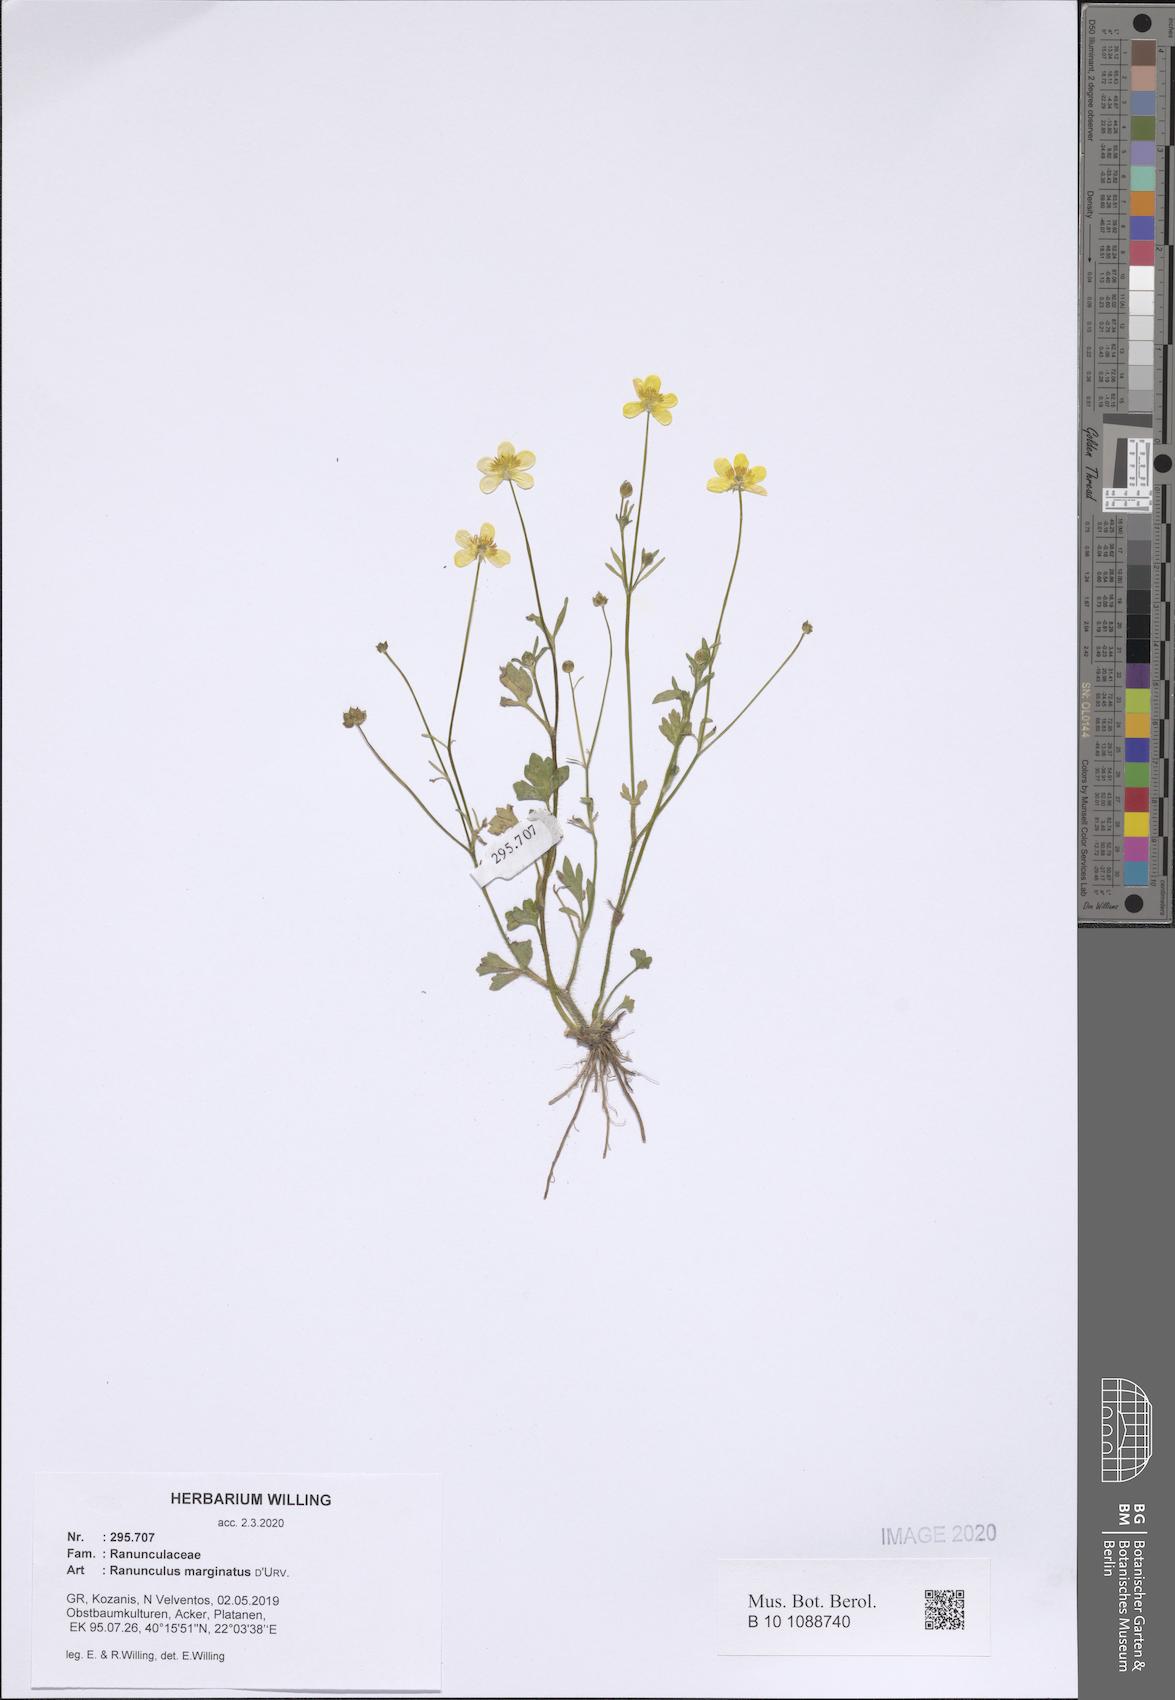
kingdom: Plantae
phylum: Tracheophyta
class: Magnoliopsida
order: Ranunculales
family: Ranunculaceae
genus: Ranunculus
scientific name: Ranunculus marginatus
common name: St. martin's buttercup
